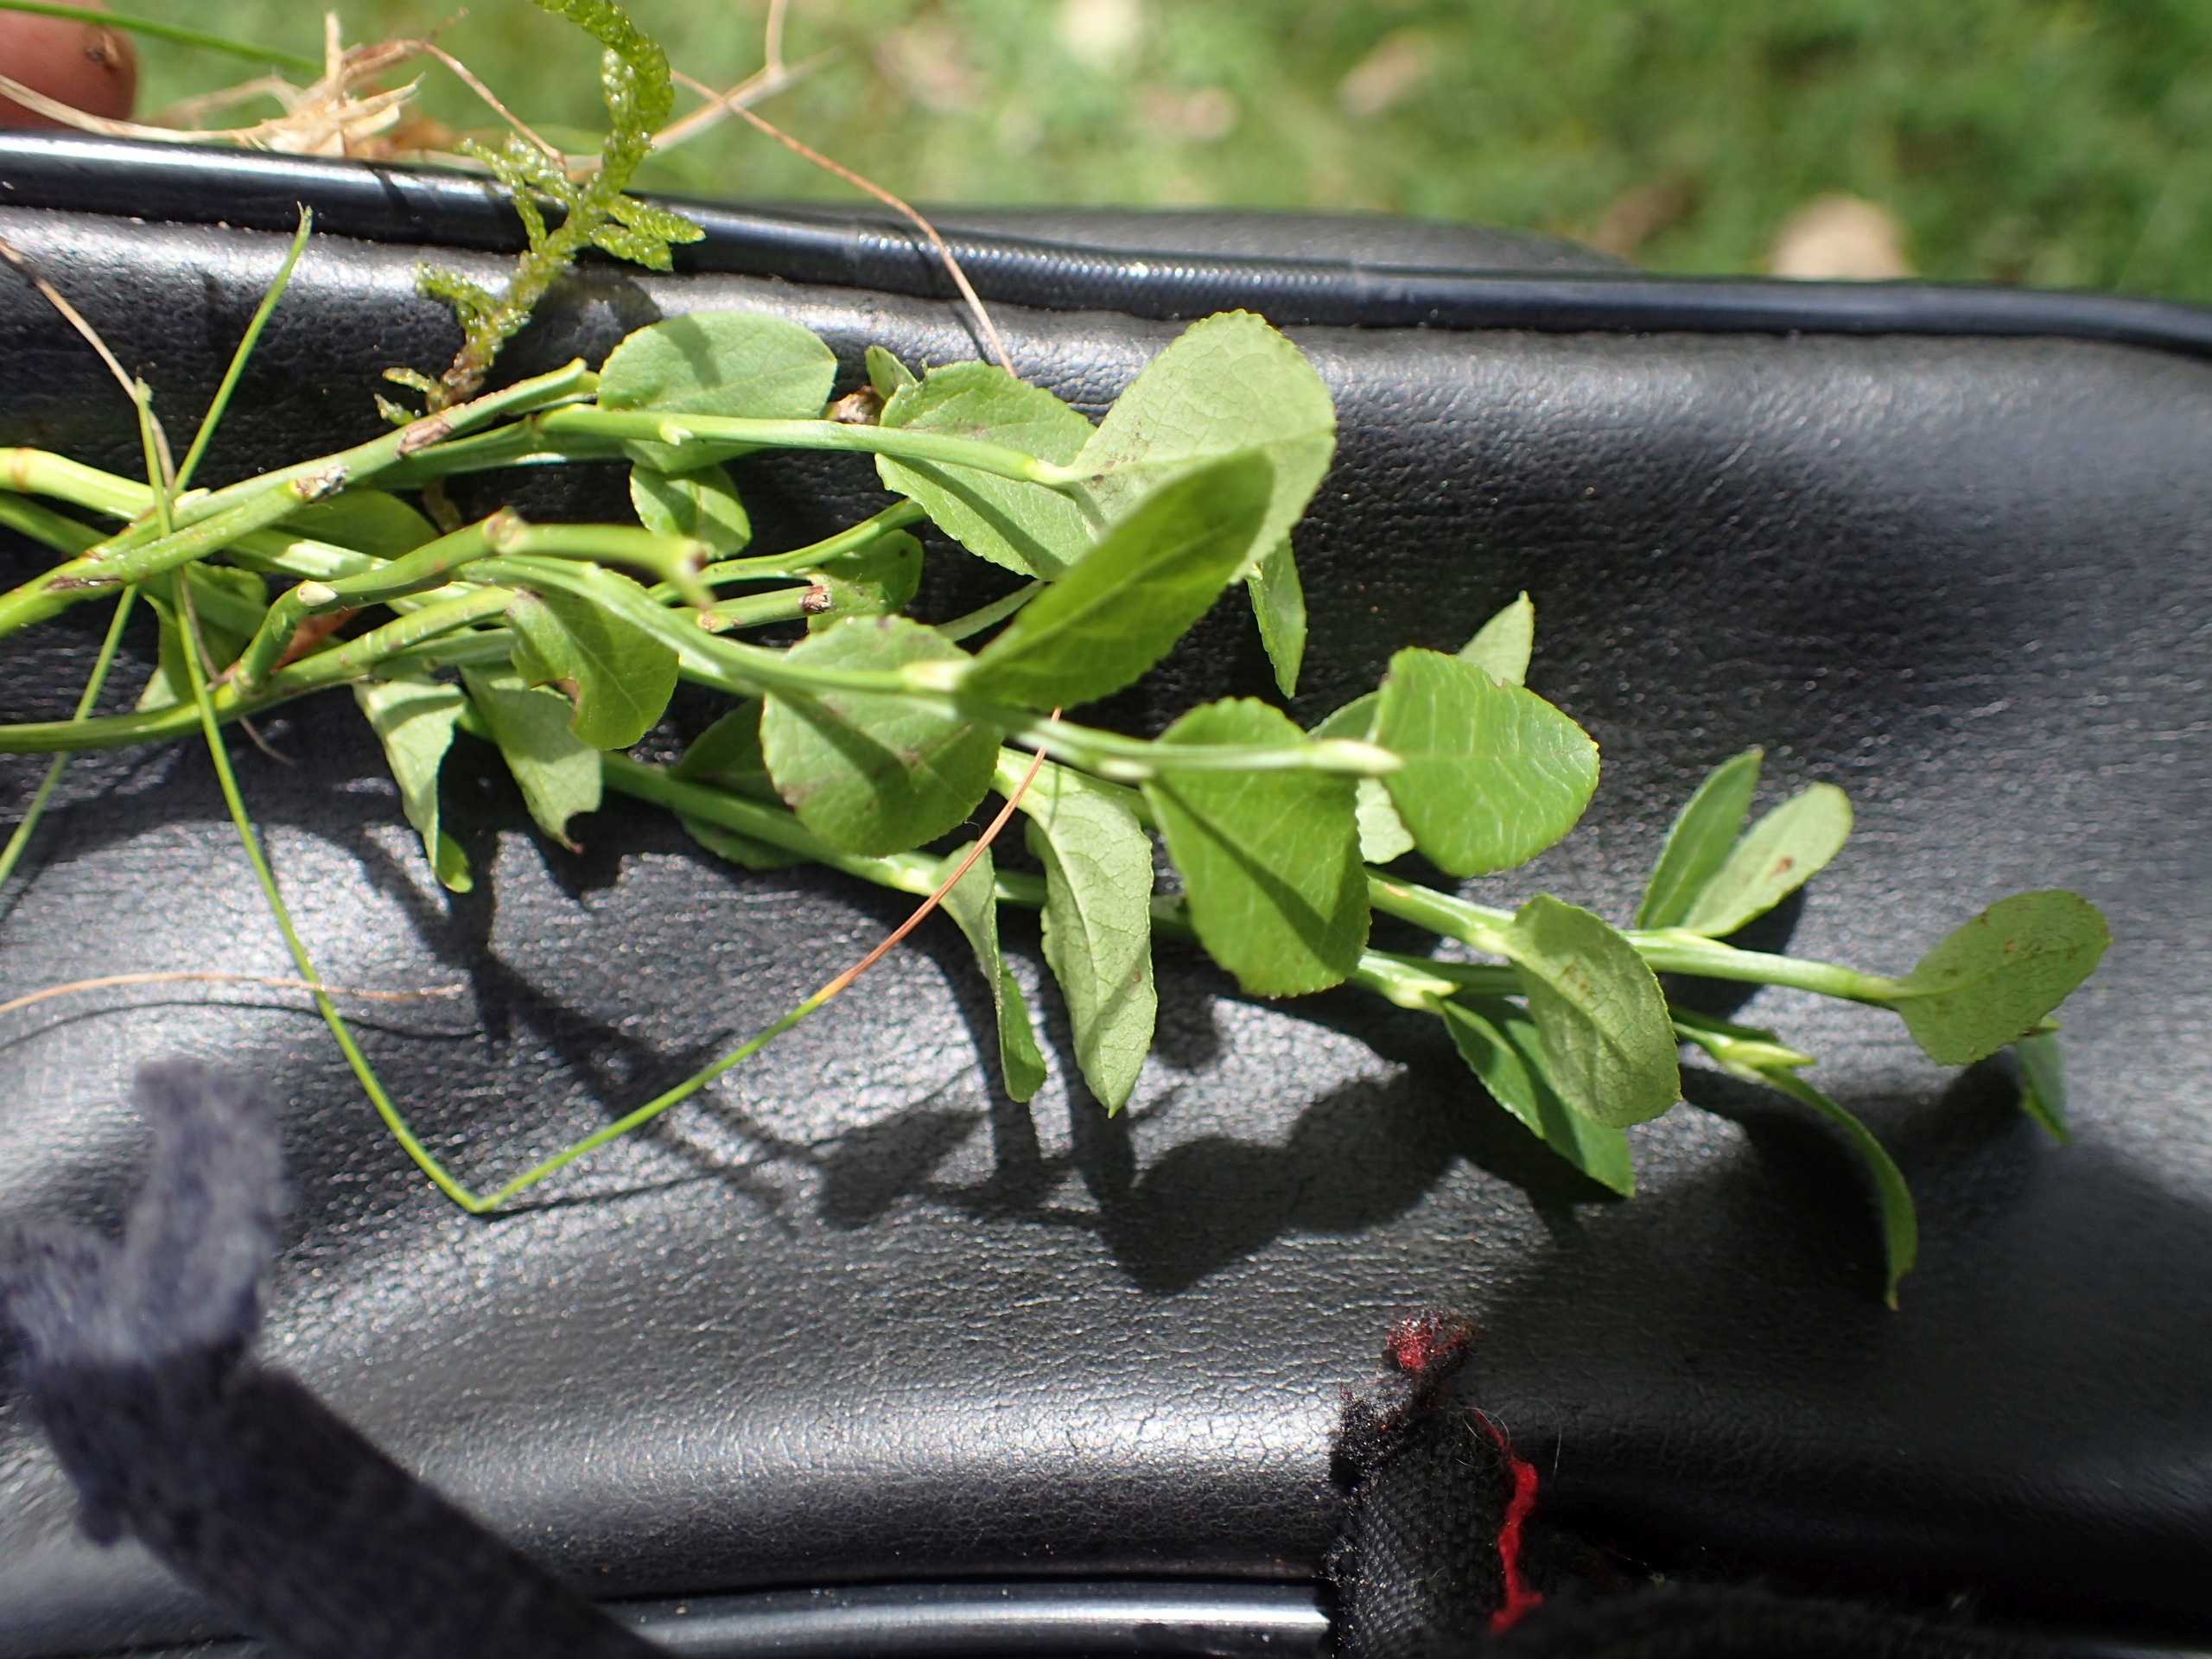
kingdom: Plantae
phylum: Tracheophyta
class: Magnoliopsida
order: Ericales
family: Ericaceae
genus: Vaccinium
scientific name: Vaccinium myrtillus
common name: Blåbær
